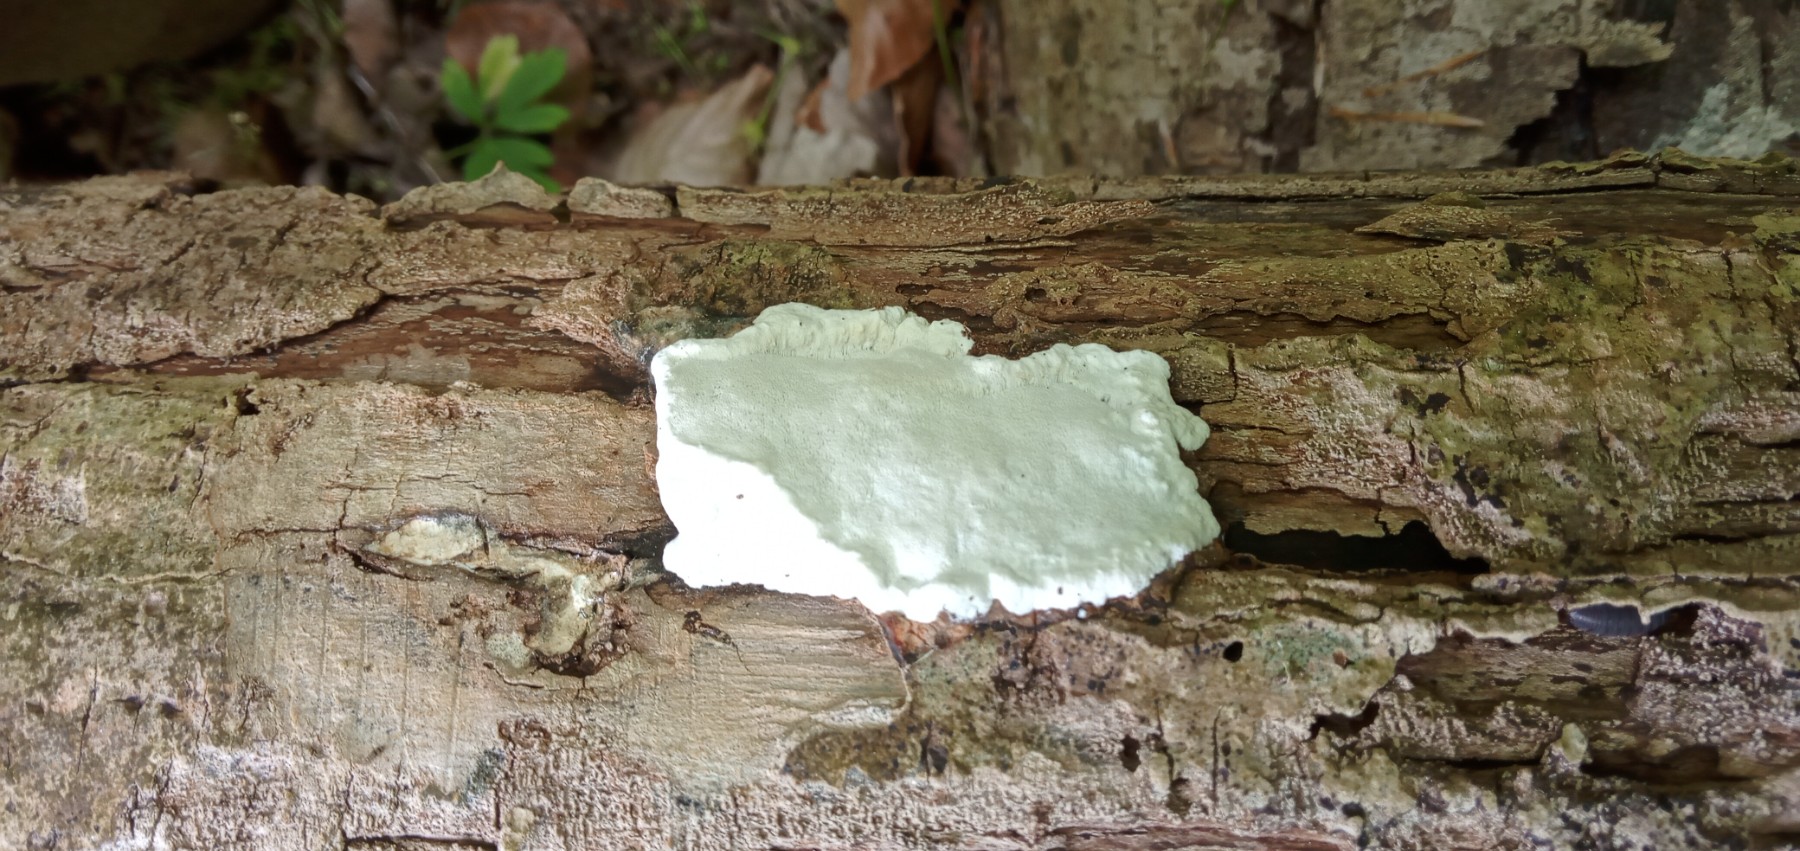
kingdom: Fungi
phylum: Basidiomycota
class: Agaricomycetes
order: Polyporales
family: Incrustoporiaceae
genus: Skeletocutis
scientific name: Skeletocutis nemoralis
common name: stor krystalporesvamp
